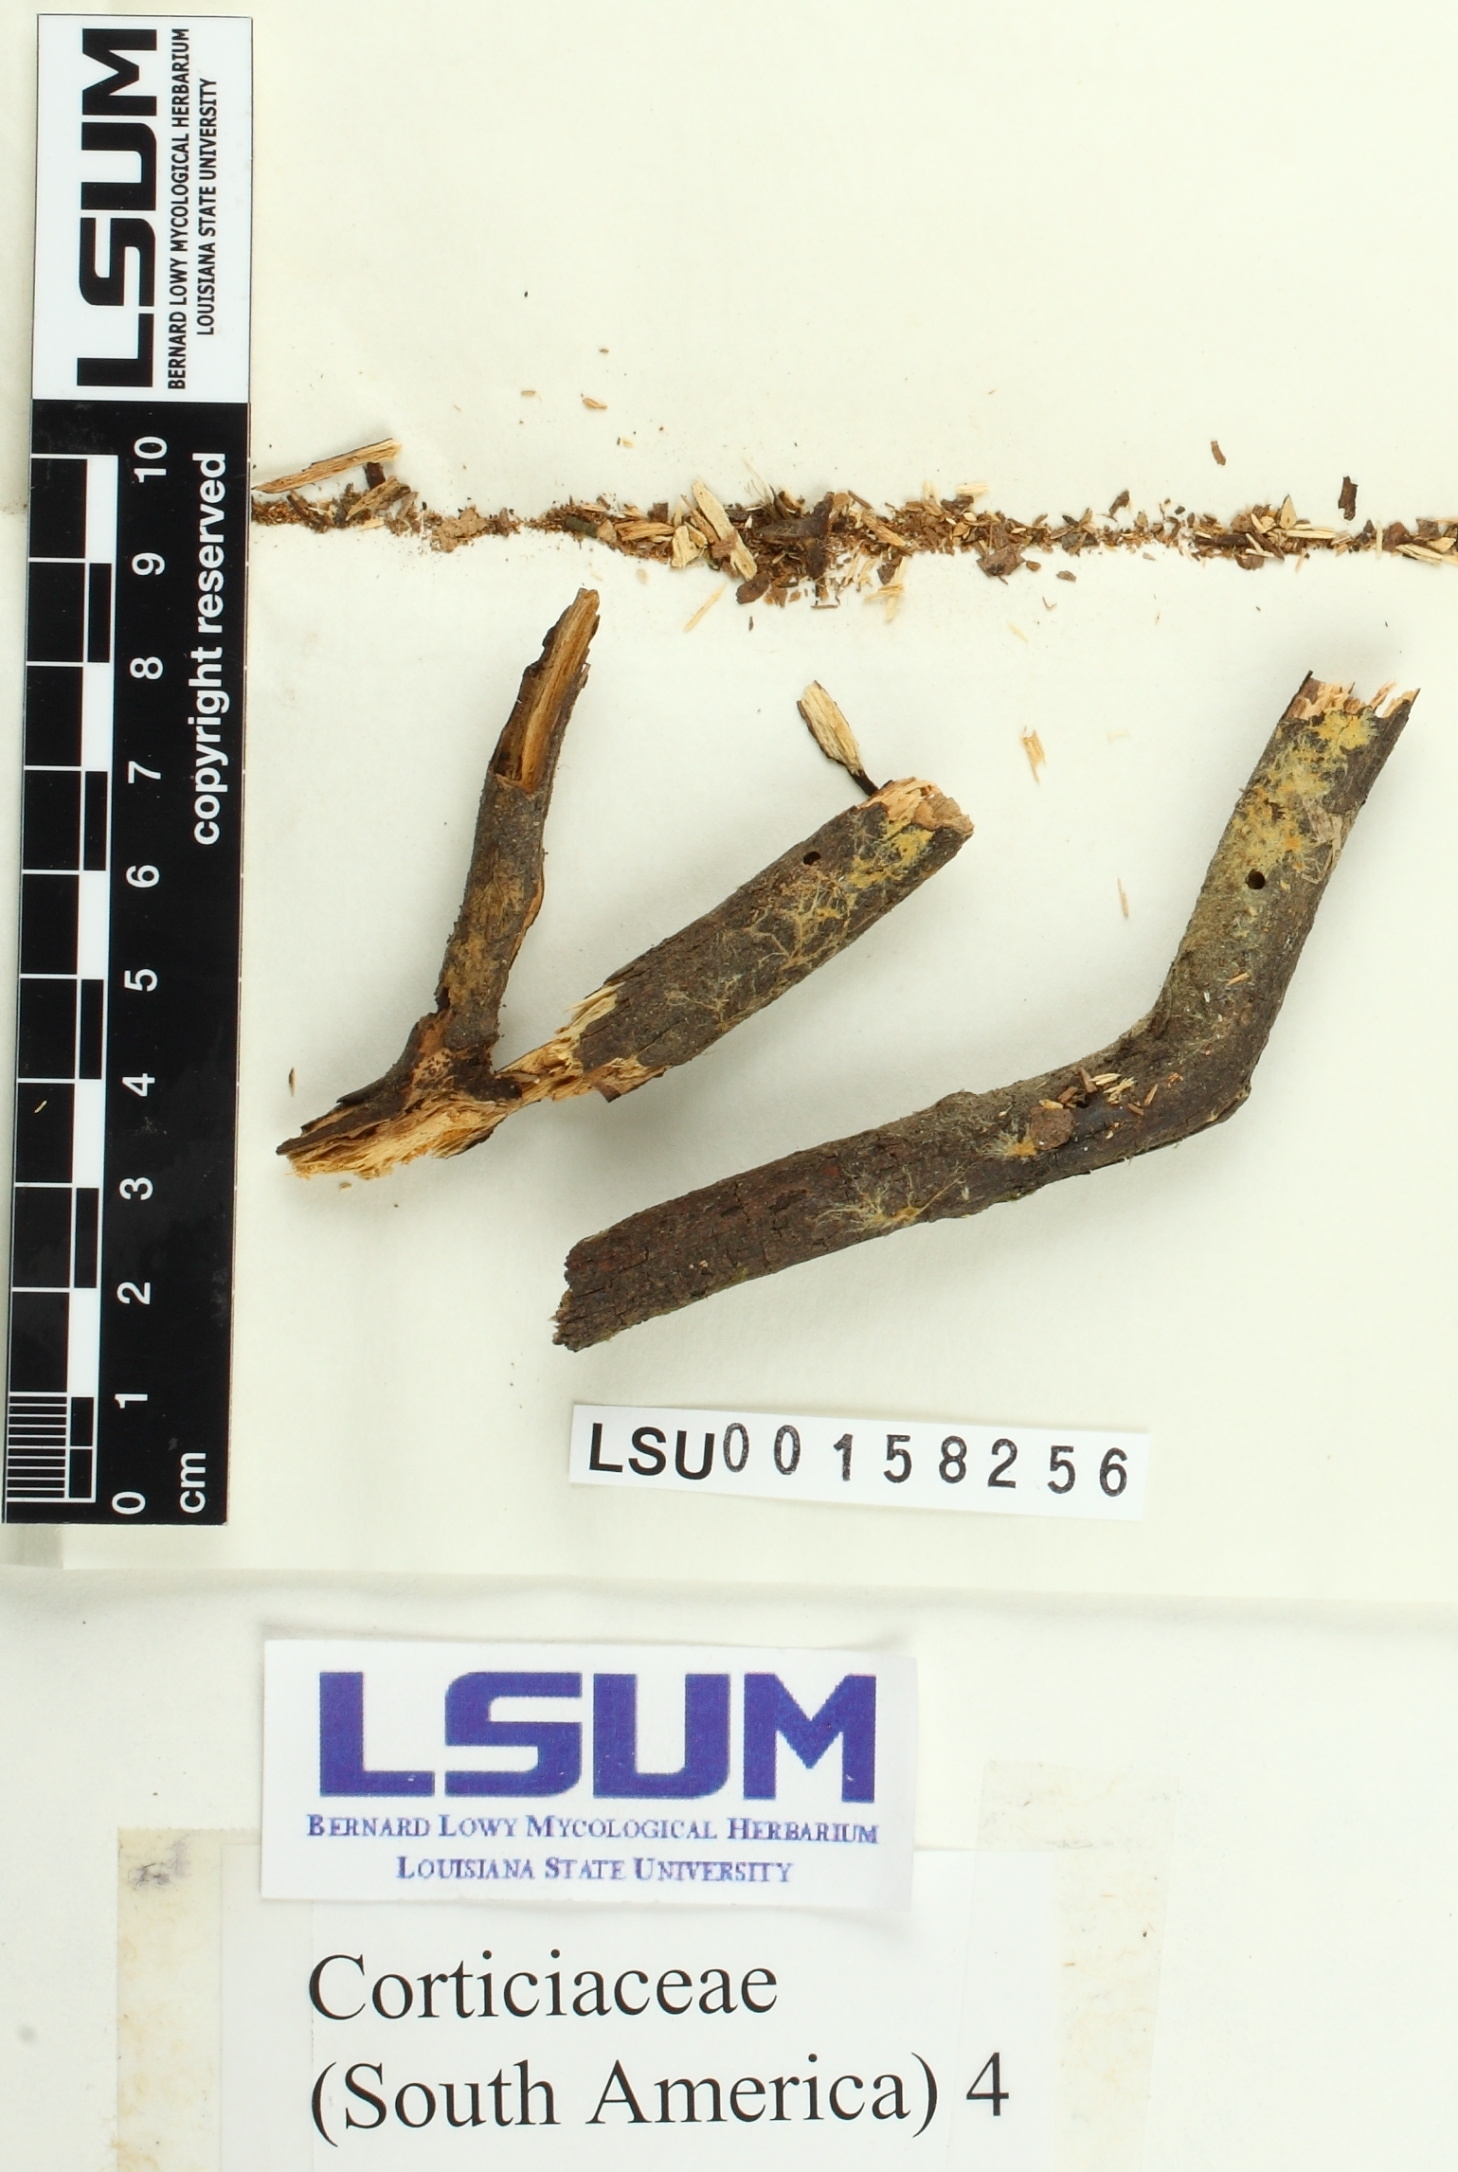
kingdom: Fungi
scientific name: Fungi
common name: Fungi
